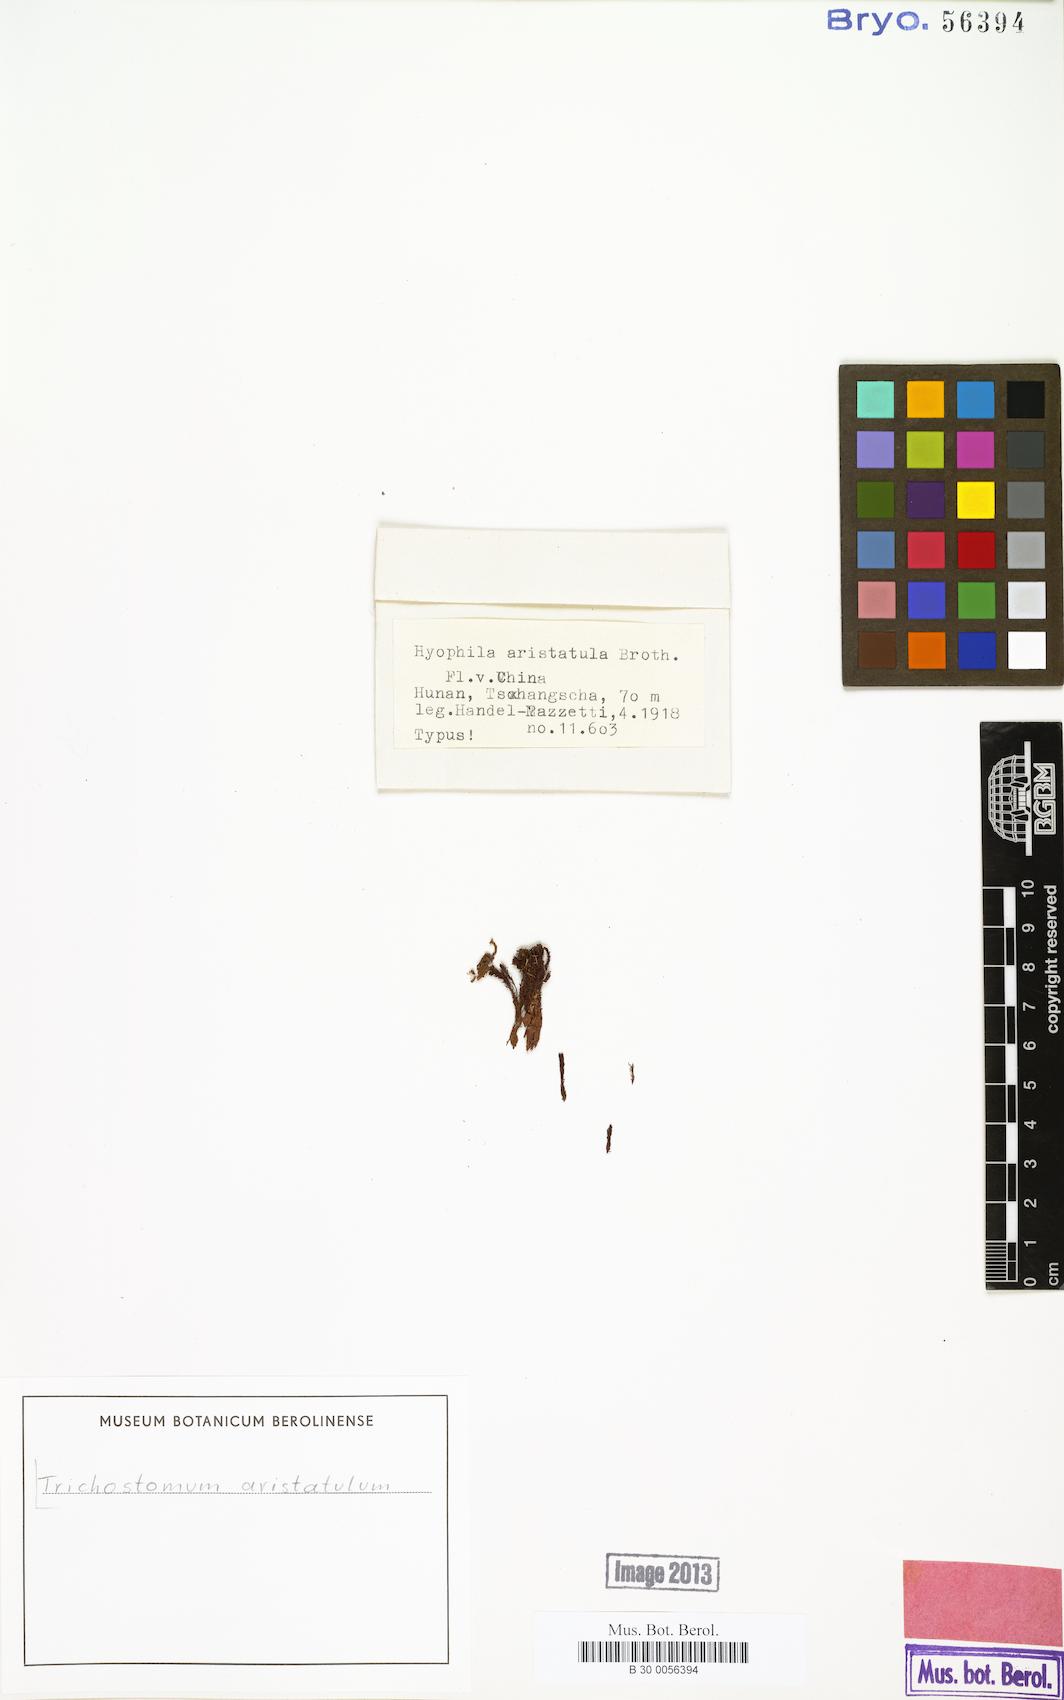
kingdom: Plantae
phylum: Bryophyta
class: Bryopsida
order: Pottiales
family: Pottiaceae
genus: Trichostomum
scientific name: Trichostomum zanderi
